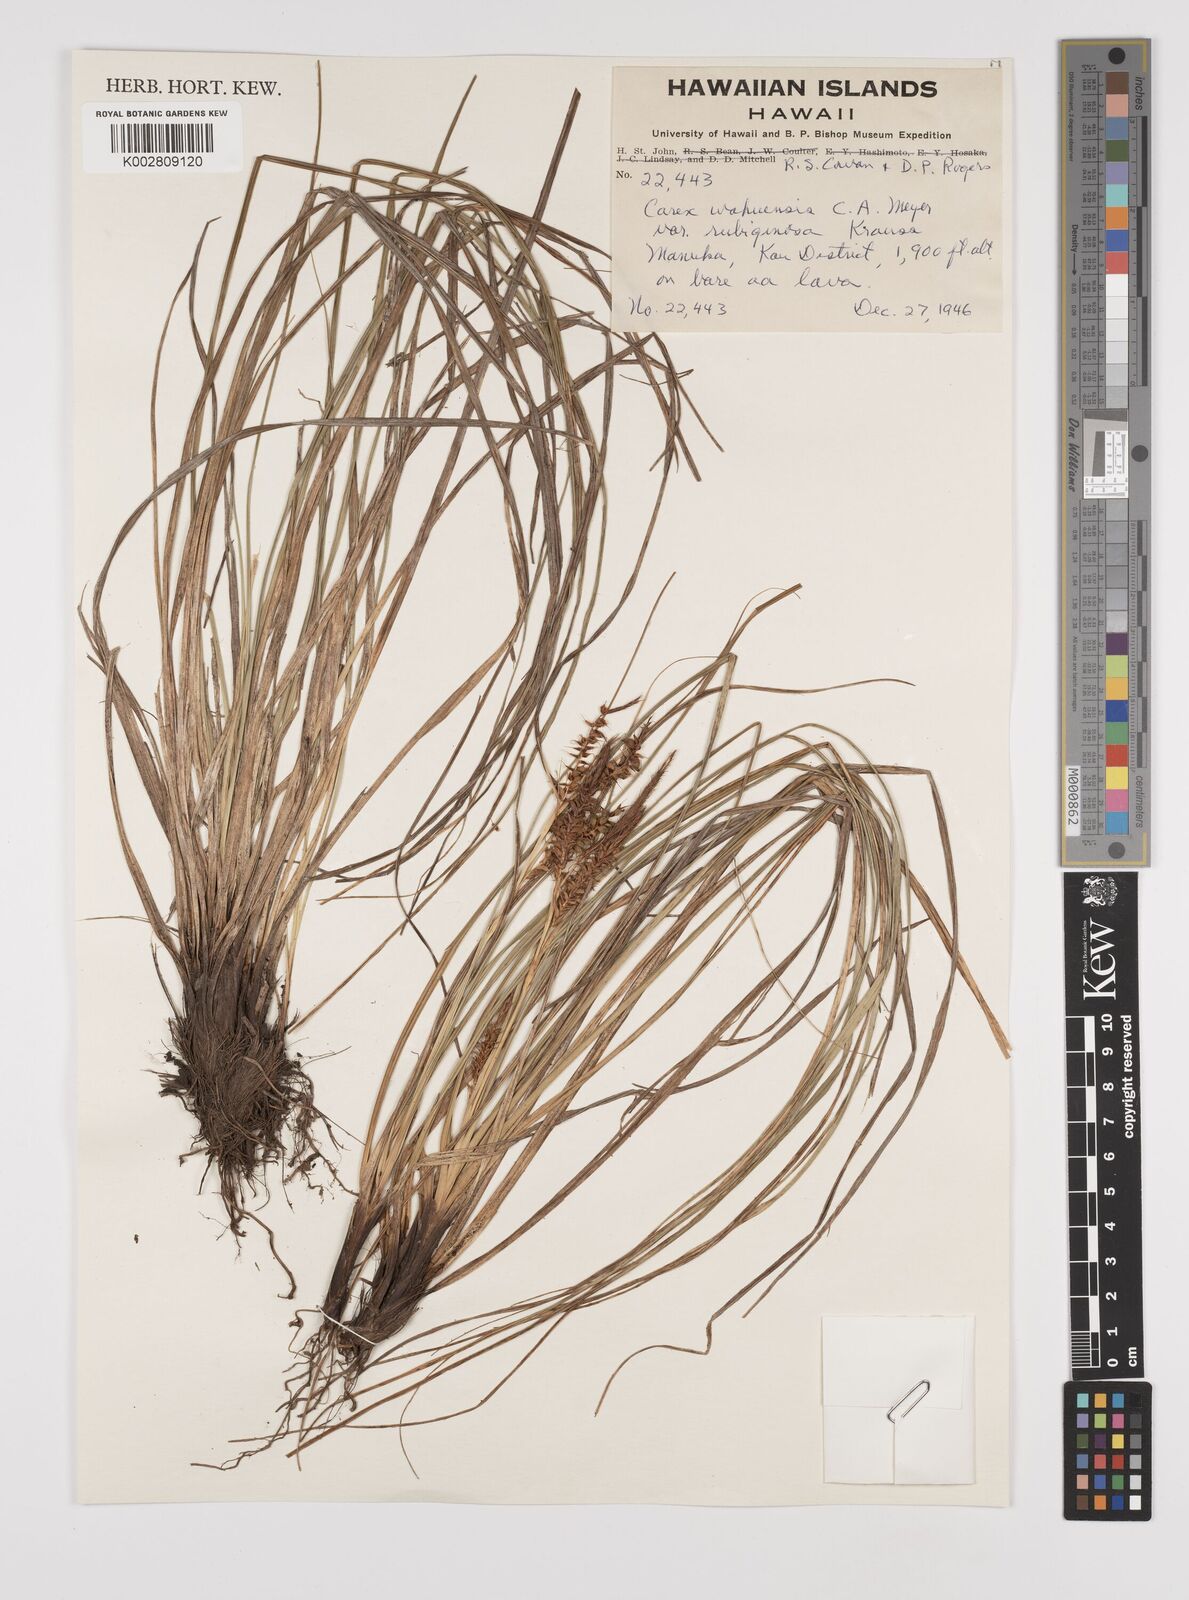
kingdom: Plantae
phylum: Tracheophyta
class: Liliopsida
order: Poales
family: Cyperaceae
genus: Carex
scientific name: Carex wahuensis
